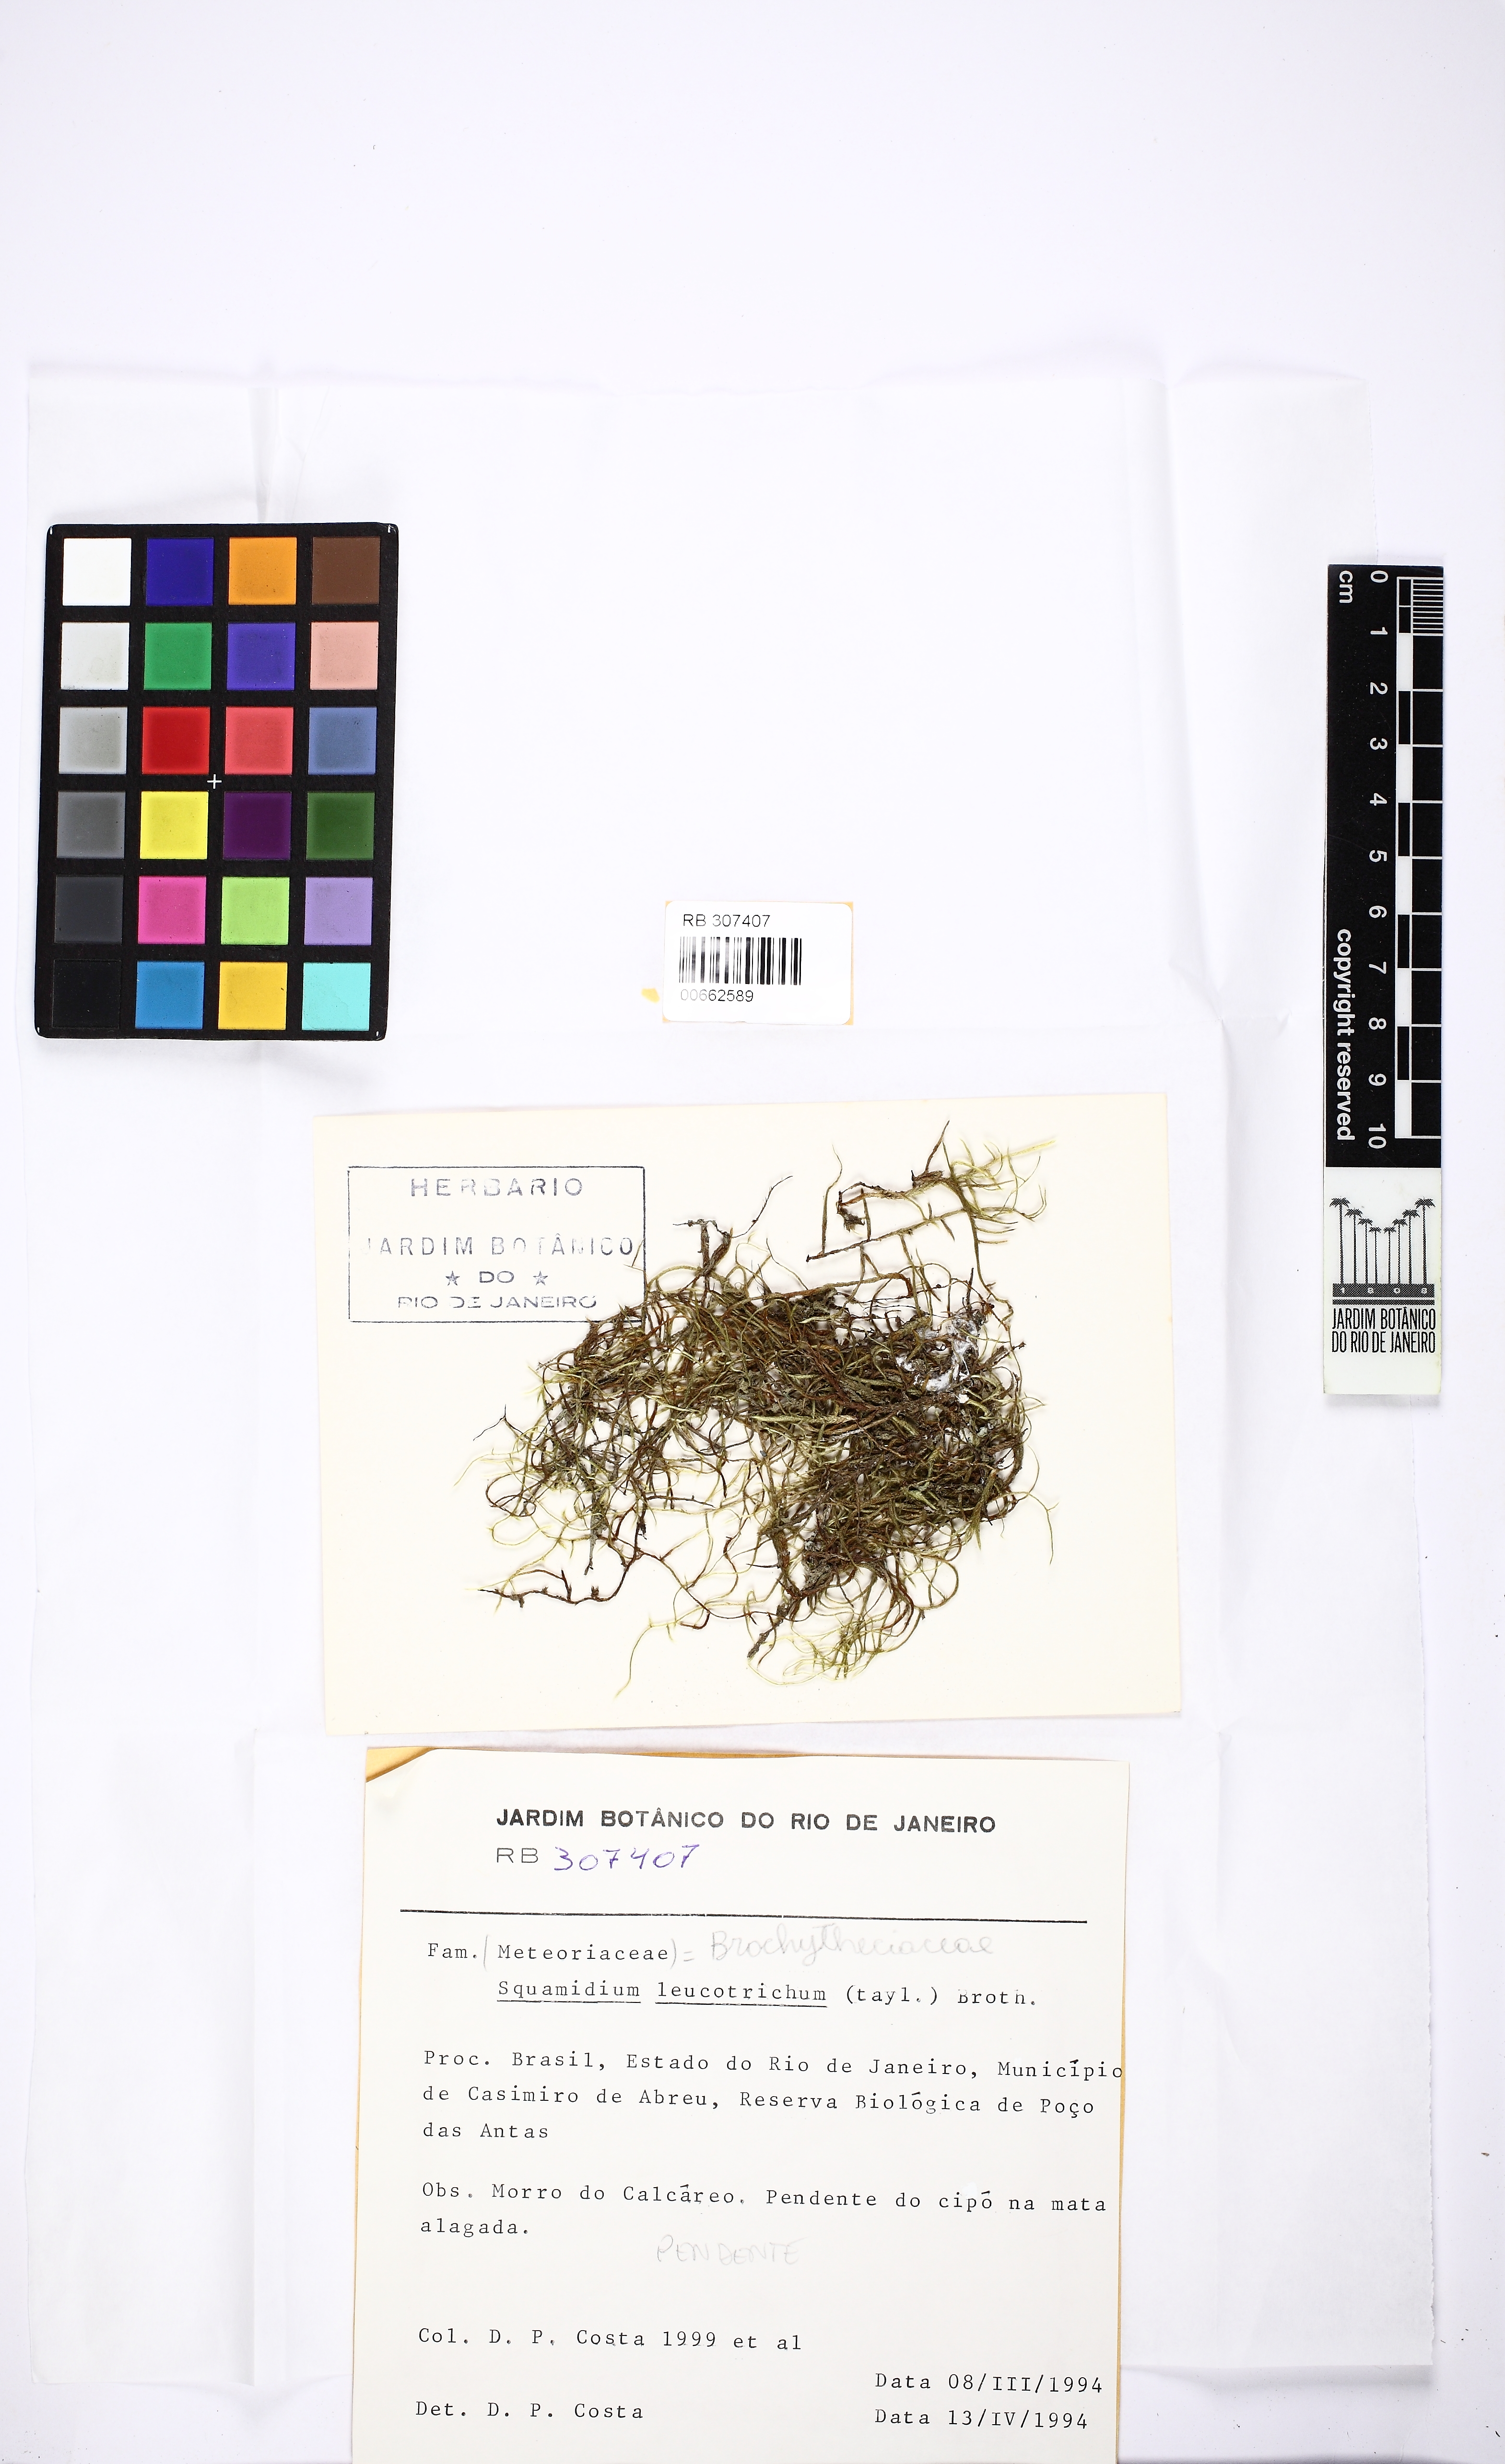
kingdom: Plantae
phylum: Bryophyta
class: Bryopsida
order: Hypnales
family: Brachytheciaceae
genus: Squamidium
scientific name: Squamidium leucotrichum
